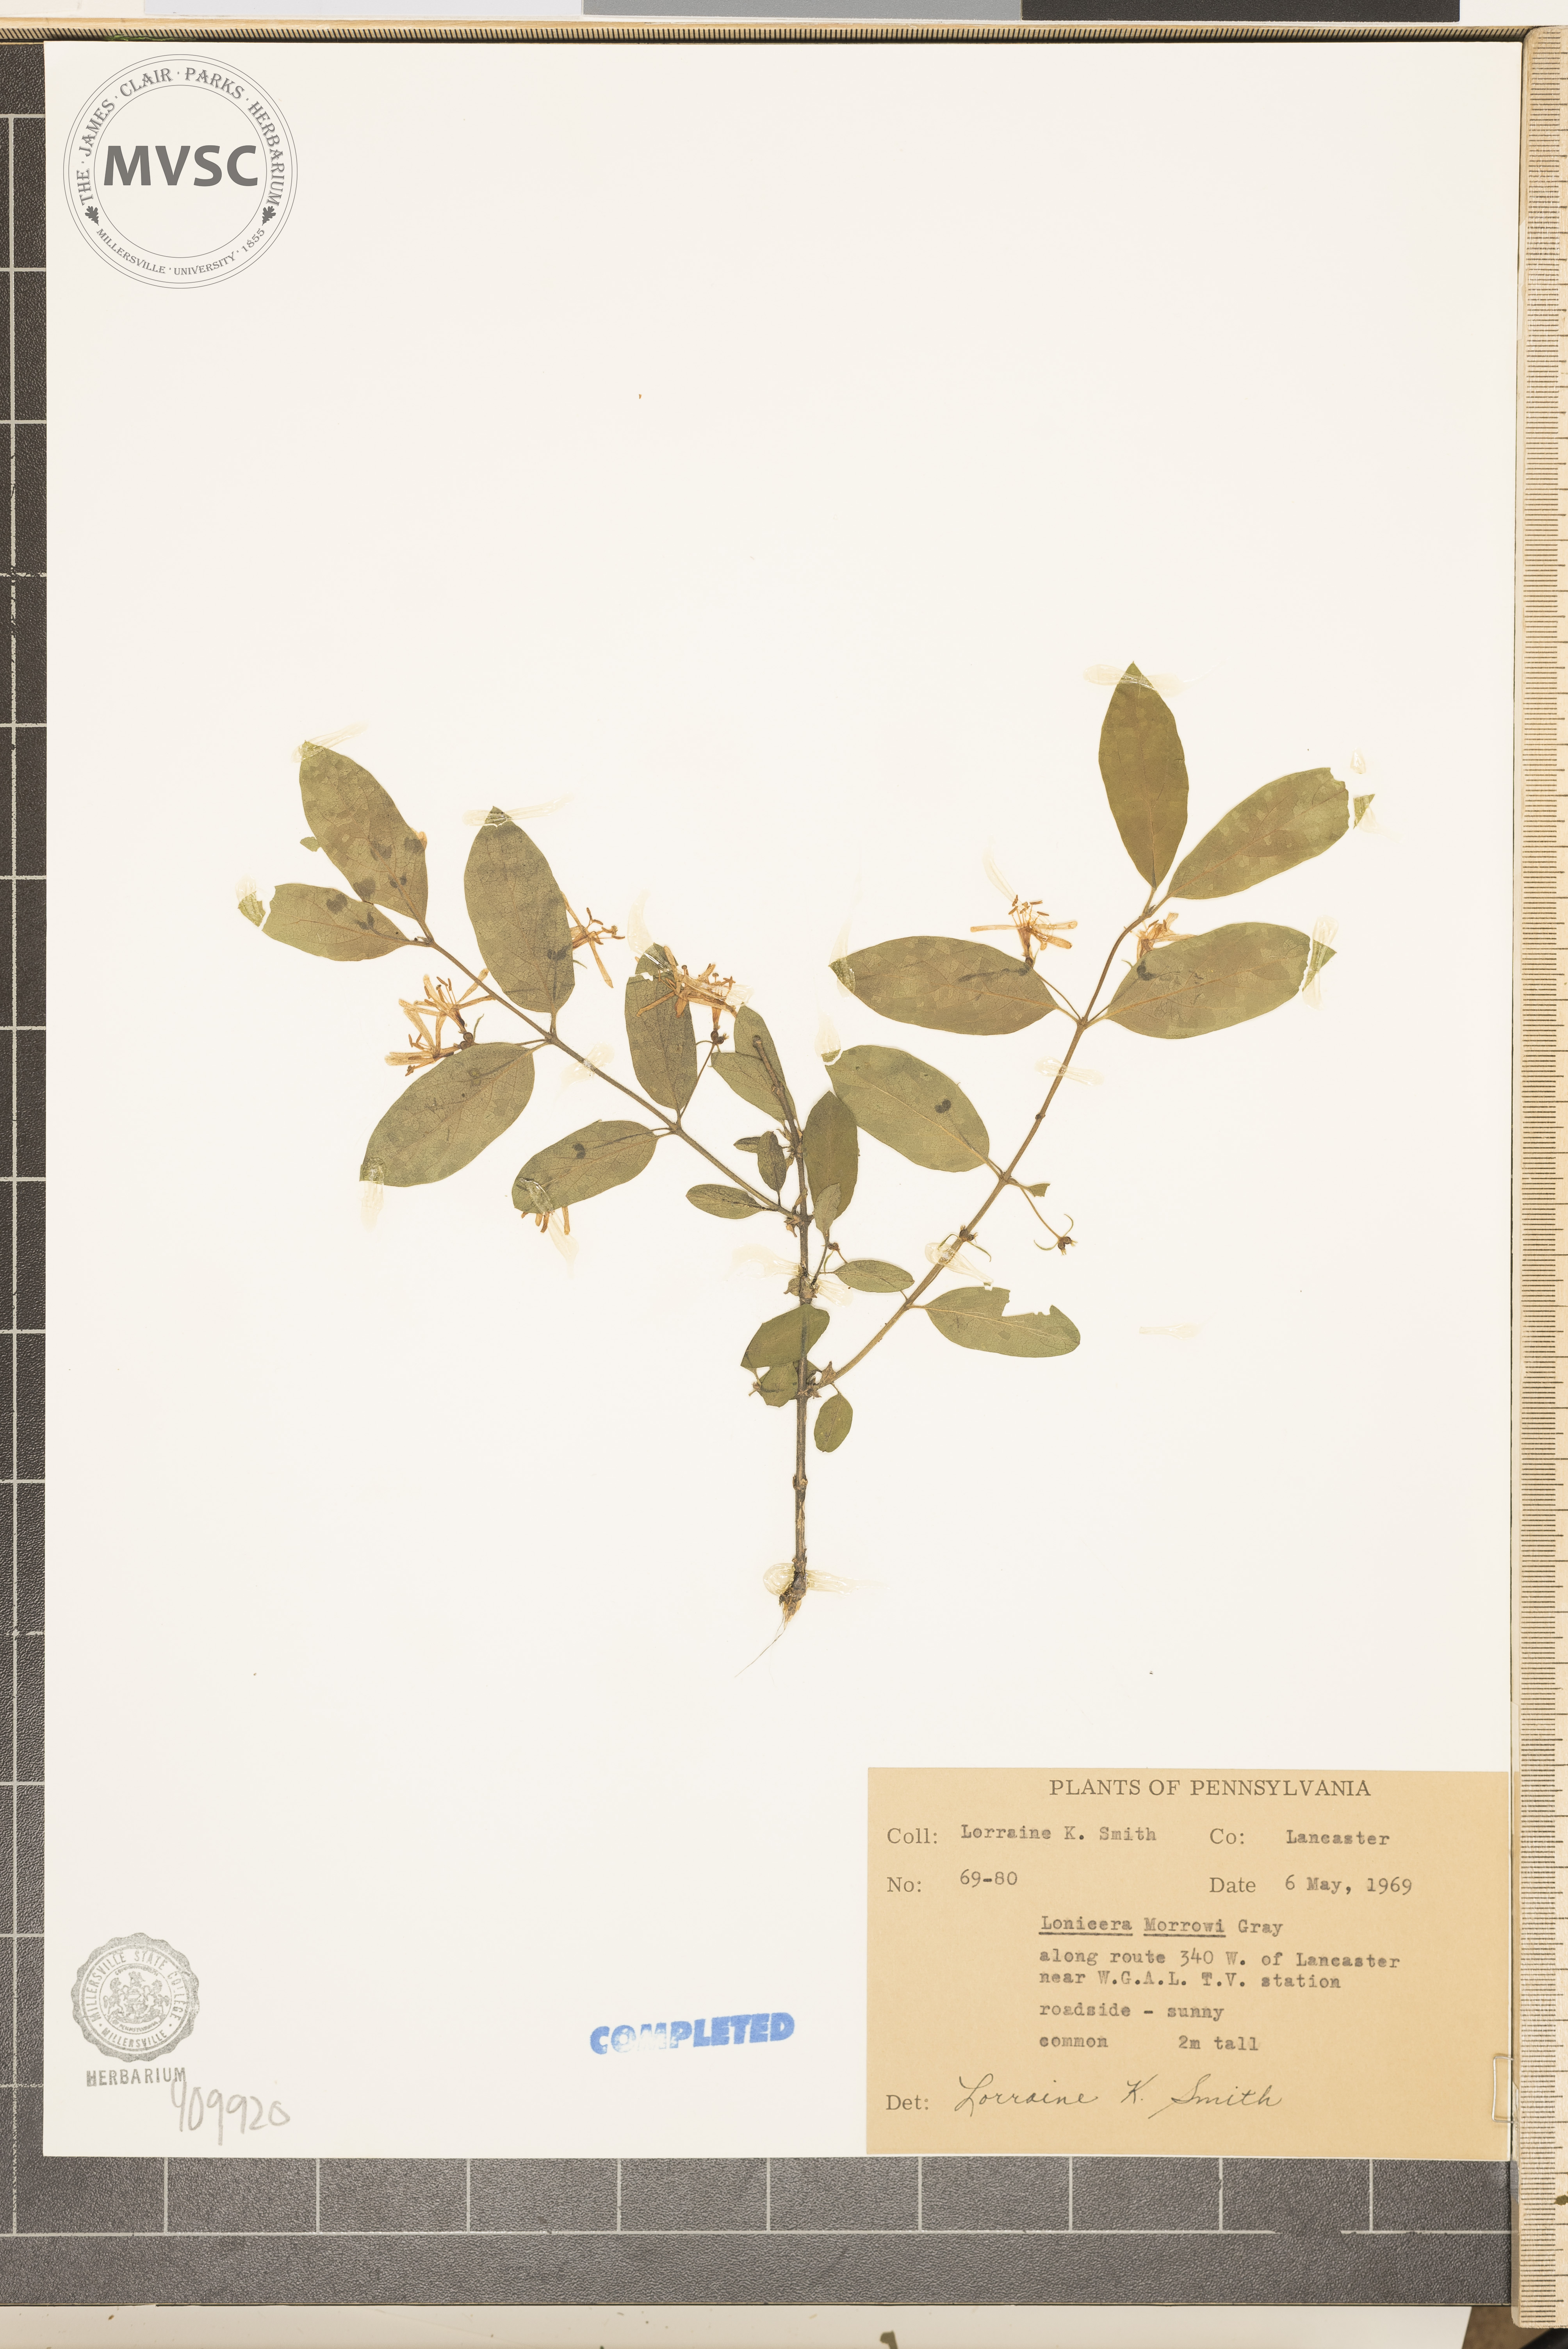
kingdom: Plantae
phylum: Tracheophyta
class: Magnoliopsida
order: Dipsacales
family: Caprifoliaceae
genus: Lonicera
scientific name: Lonicera morrowii
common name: Morrow's honeysuckle
